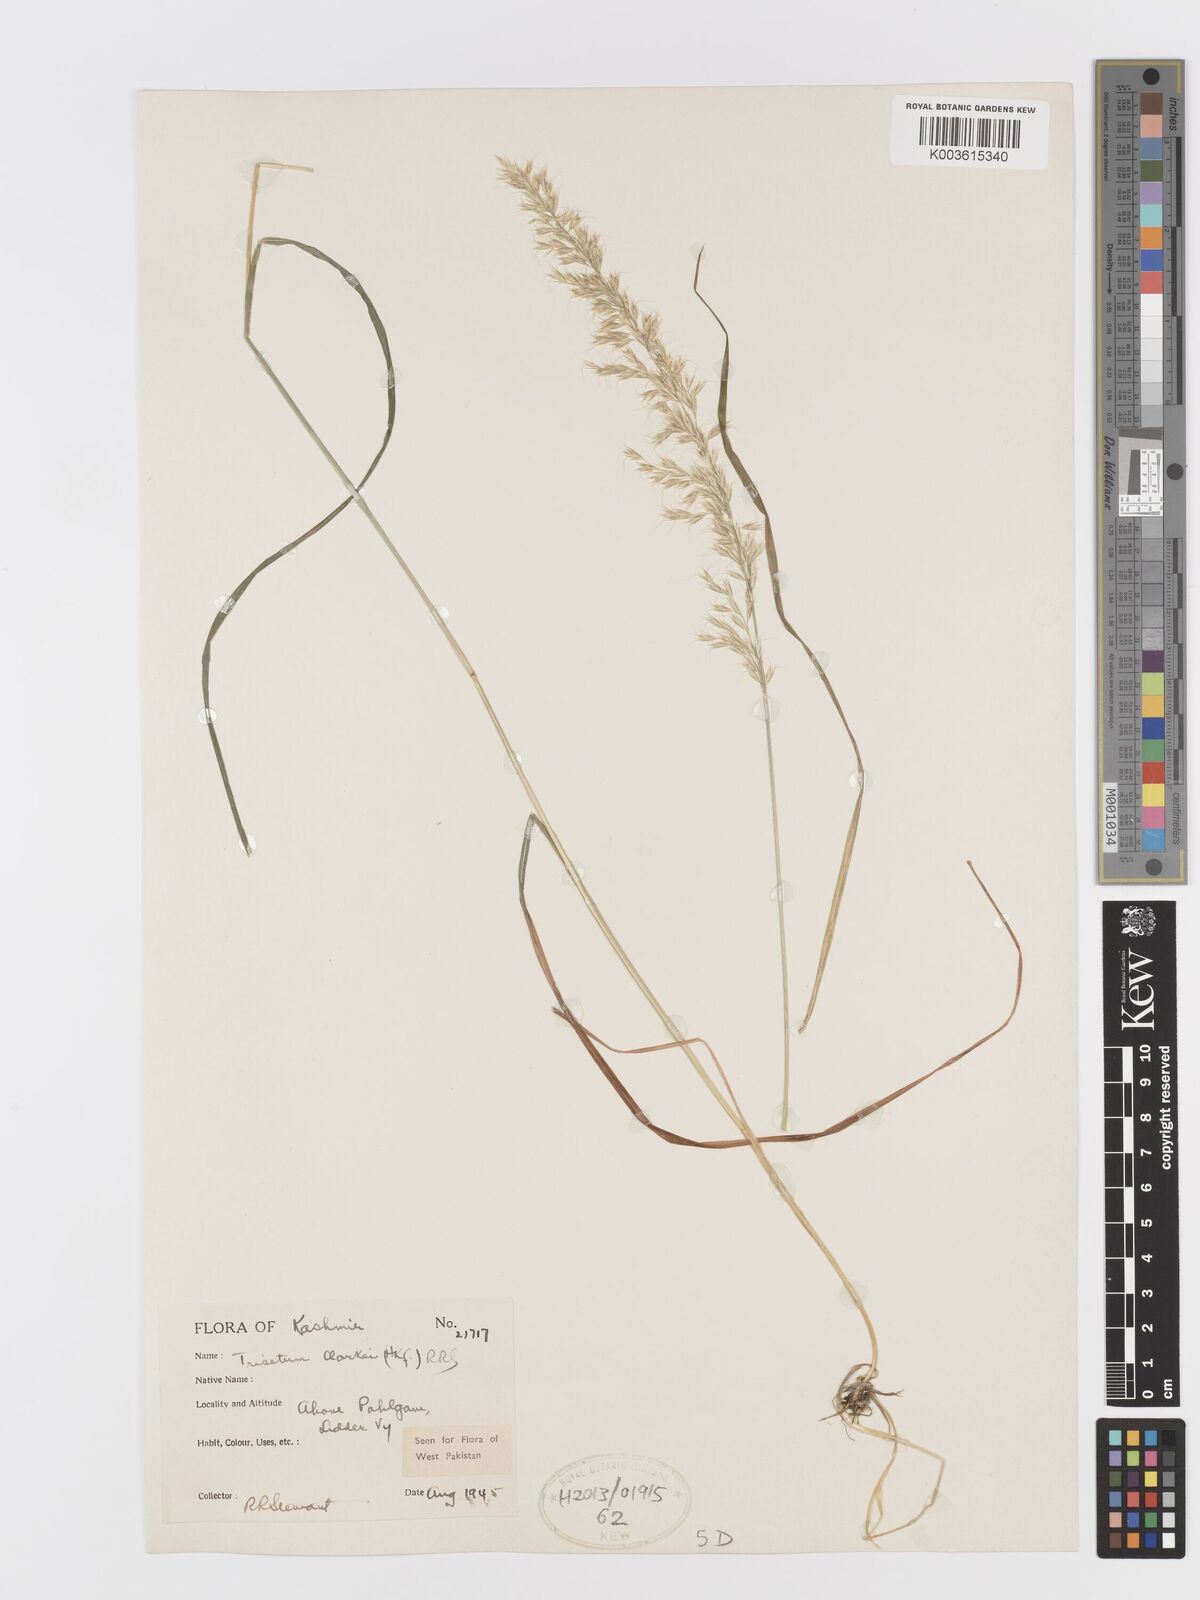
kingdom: Plantae
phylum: Tracheophyta
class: Liliopsida
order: Poales
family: Poaceae
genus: Trisetum
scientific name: Trisetum clarkei
